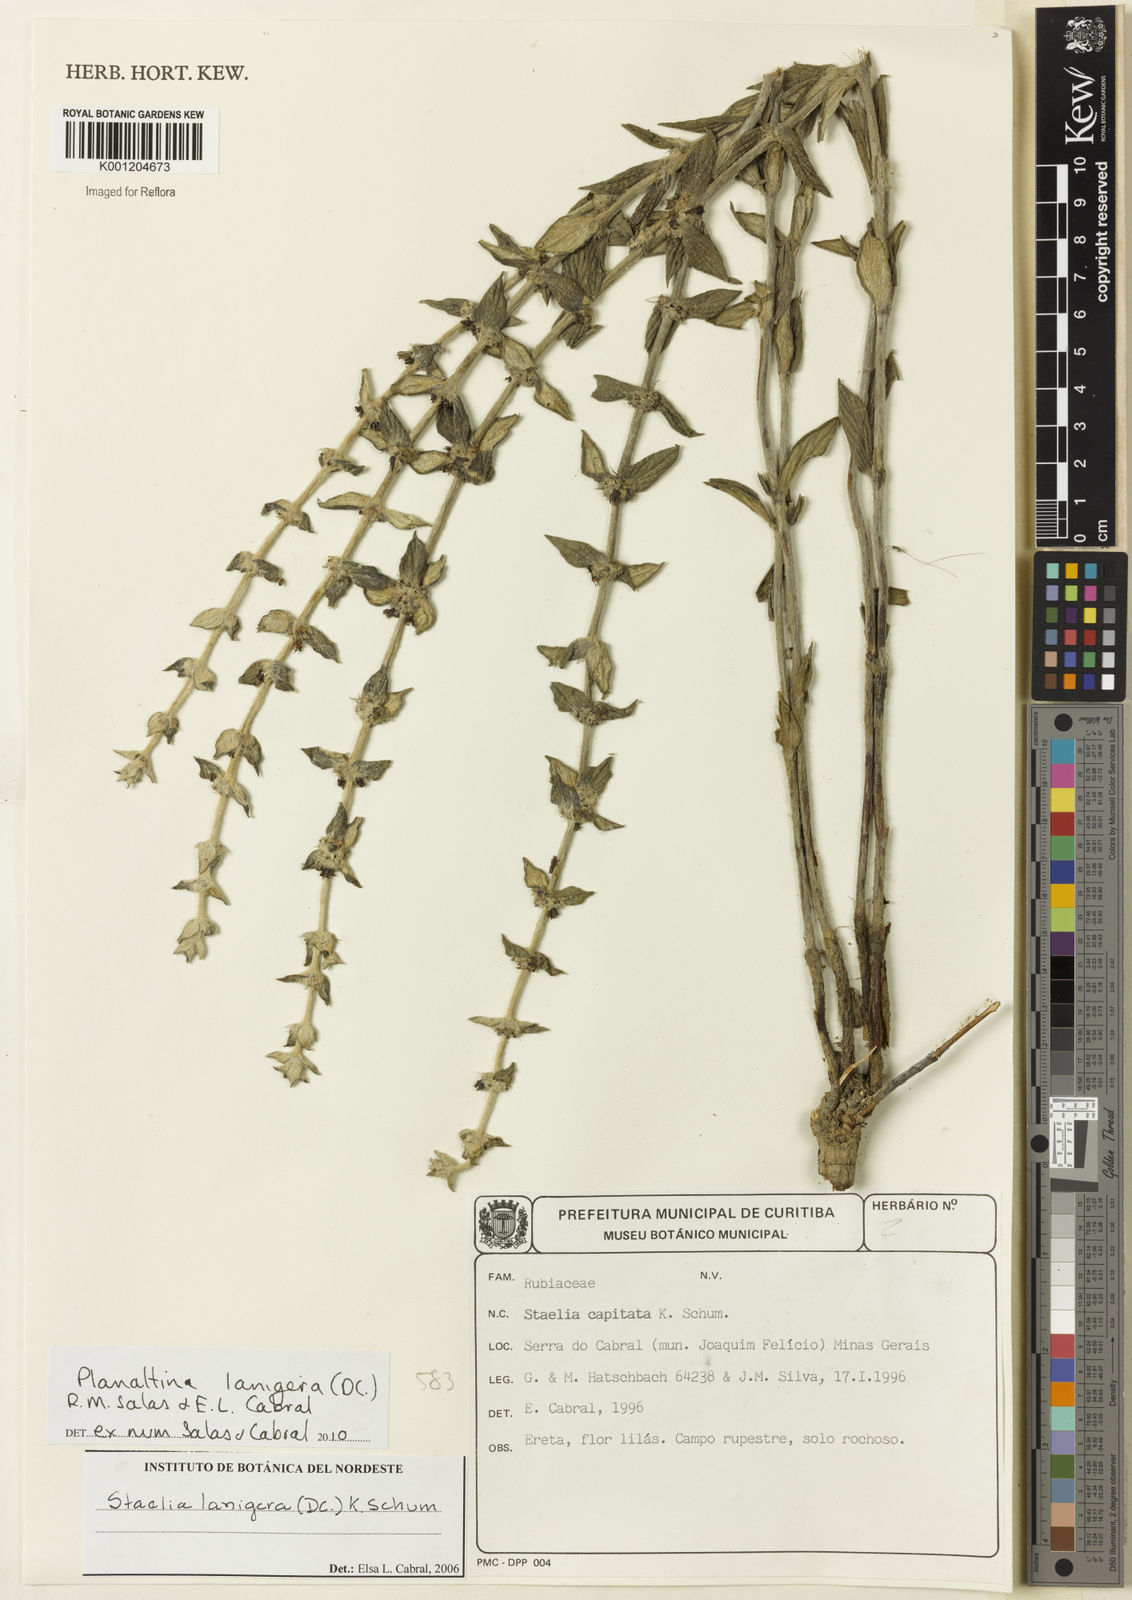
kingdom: Plantae
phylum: Tracheophyta
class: Magnoliopsida
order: Gentianales
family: Rubiaceae
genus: Planaltina
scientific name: Planaltina lanigera
